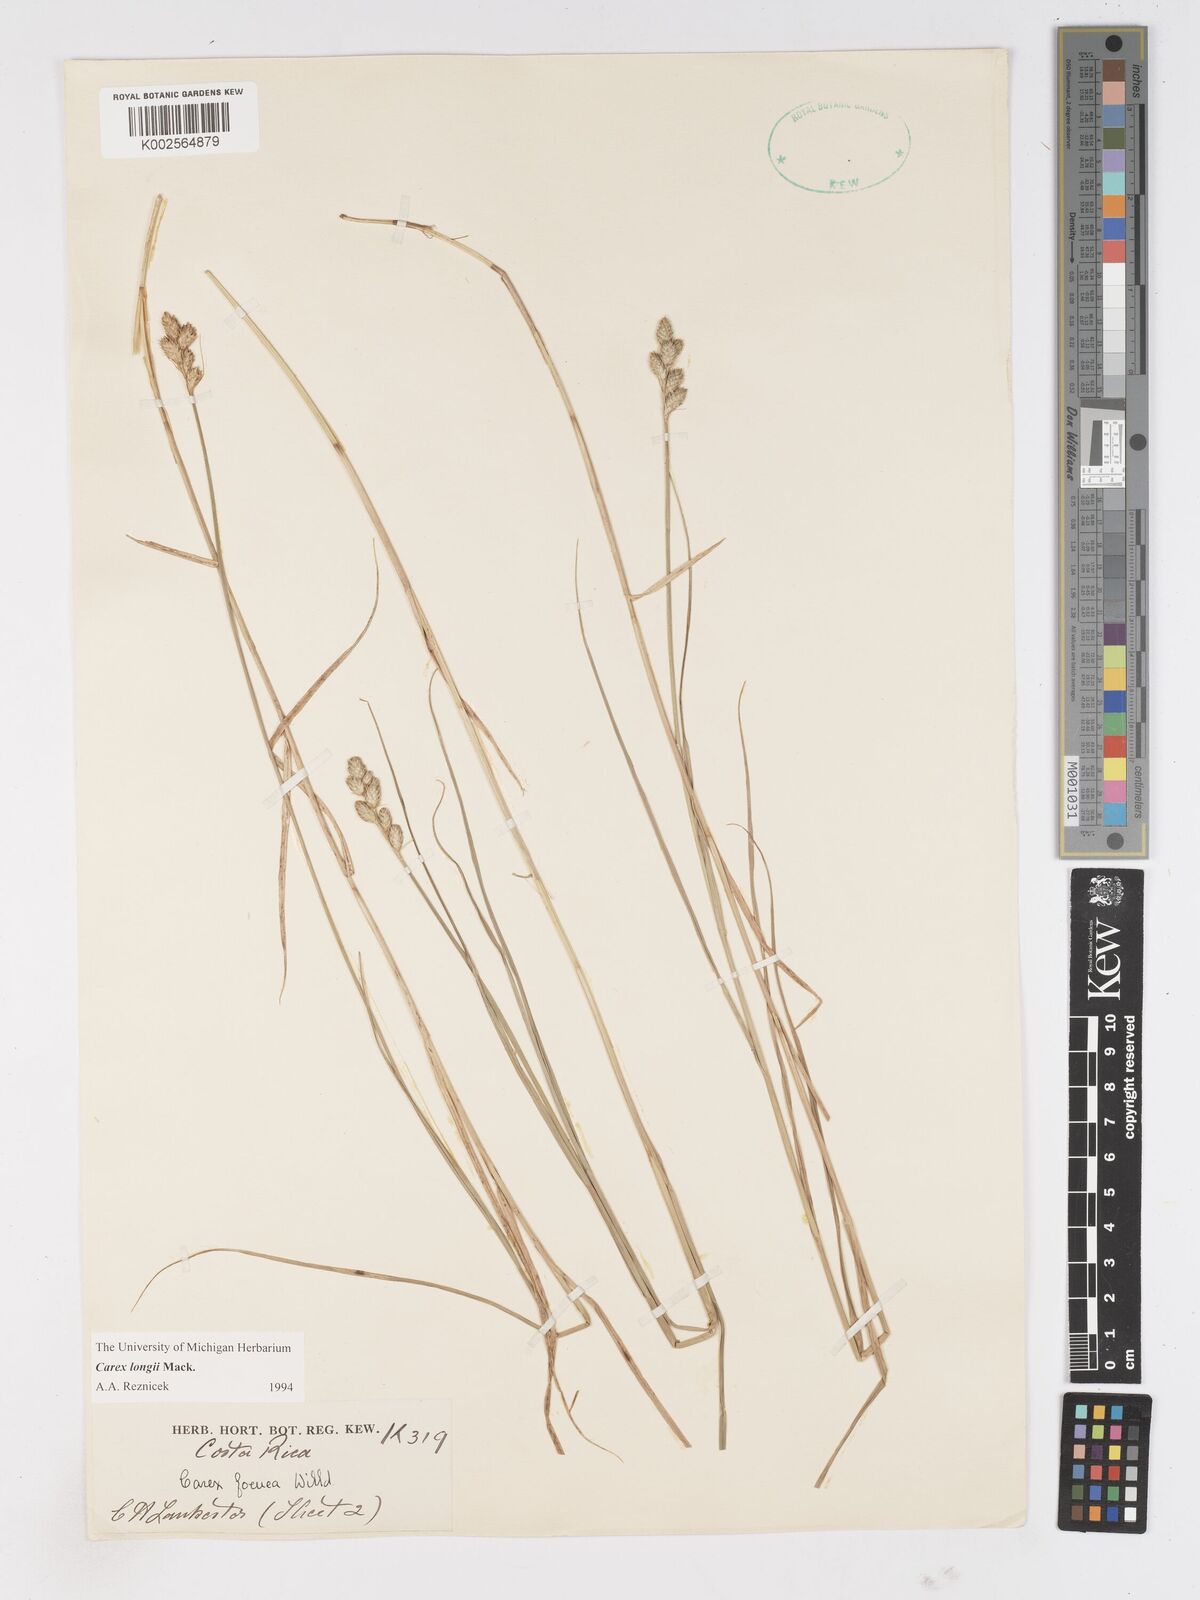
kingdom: Plantae
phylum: Tracheophyta
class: Liliopsida
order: Poales
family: Cyperaceae
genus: Carex
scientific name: Carex longii
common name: Long's sedge
